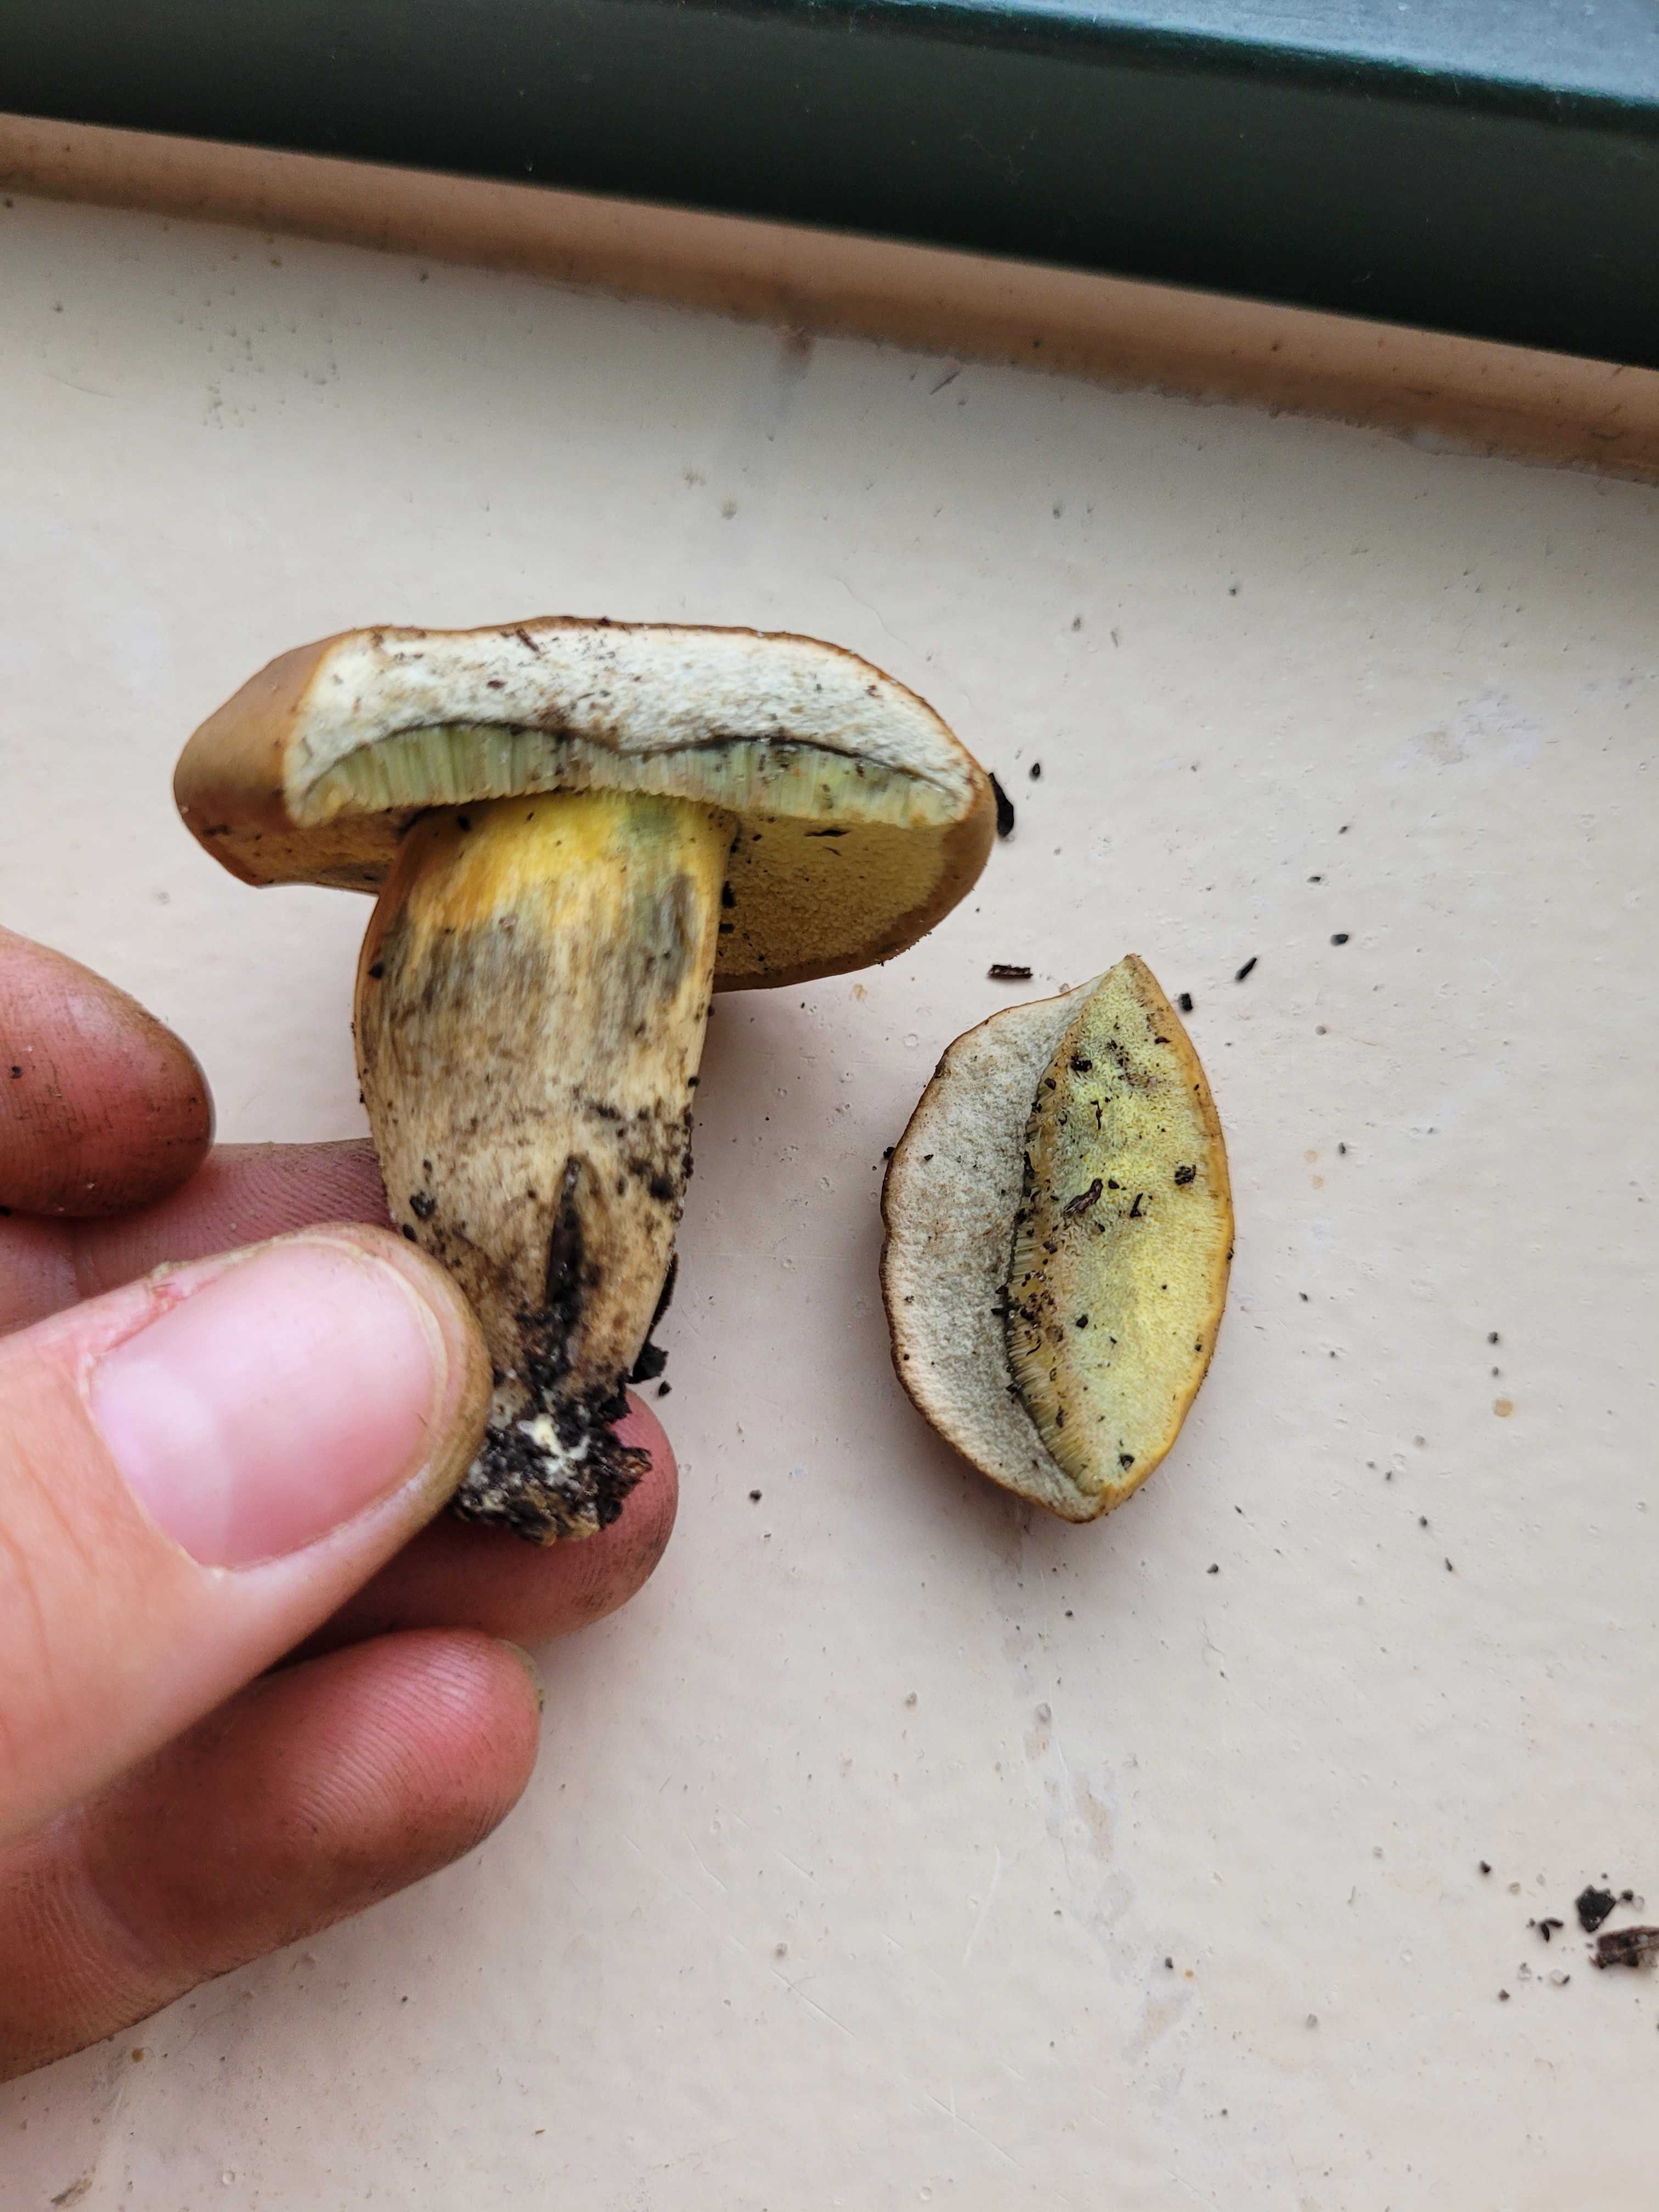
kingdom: Fungi
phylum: Basidiomycota
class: Agaricomycetes
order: Boletales
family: Boletaceae
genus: Hortiboletus
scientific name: Hortiboletus bubalinus
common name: aurora-rørhat
